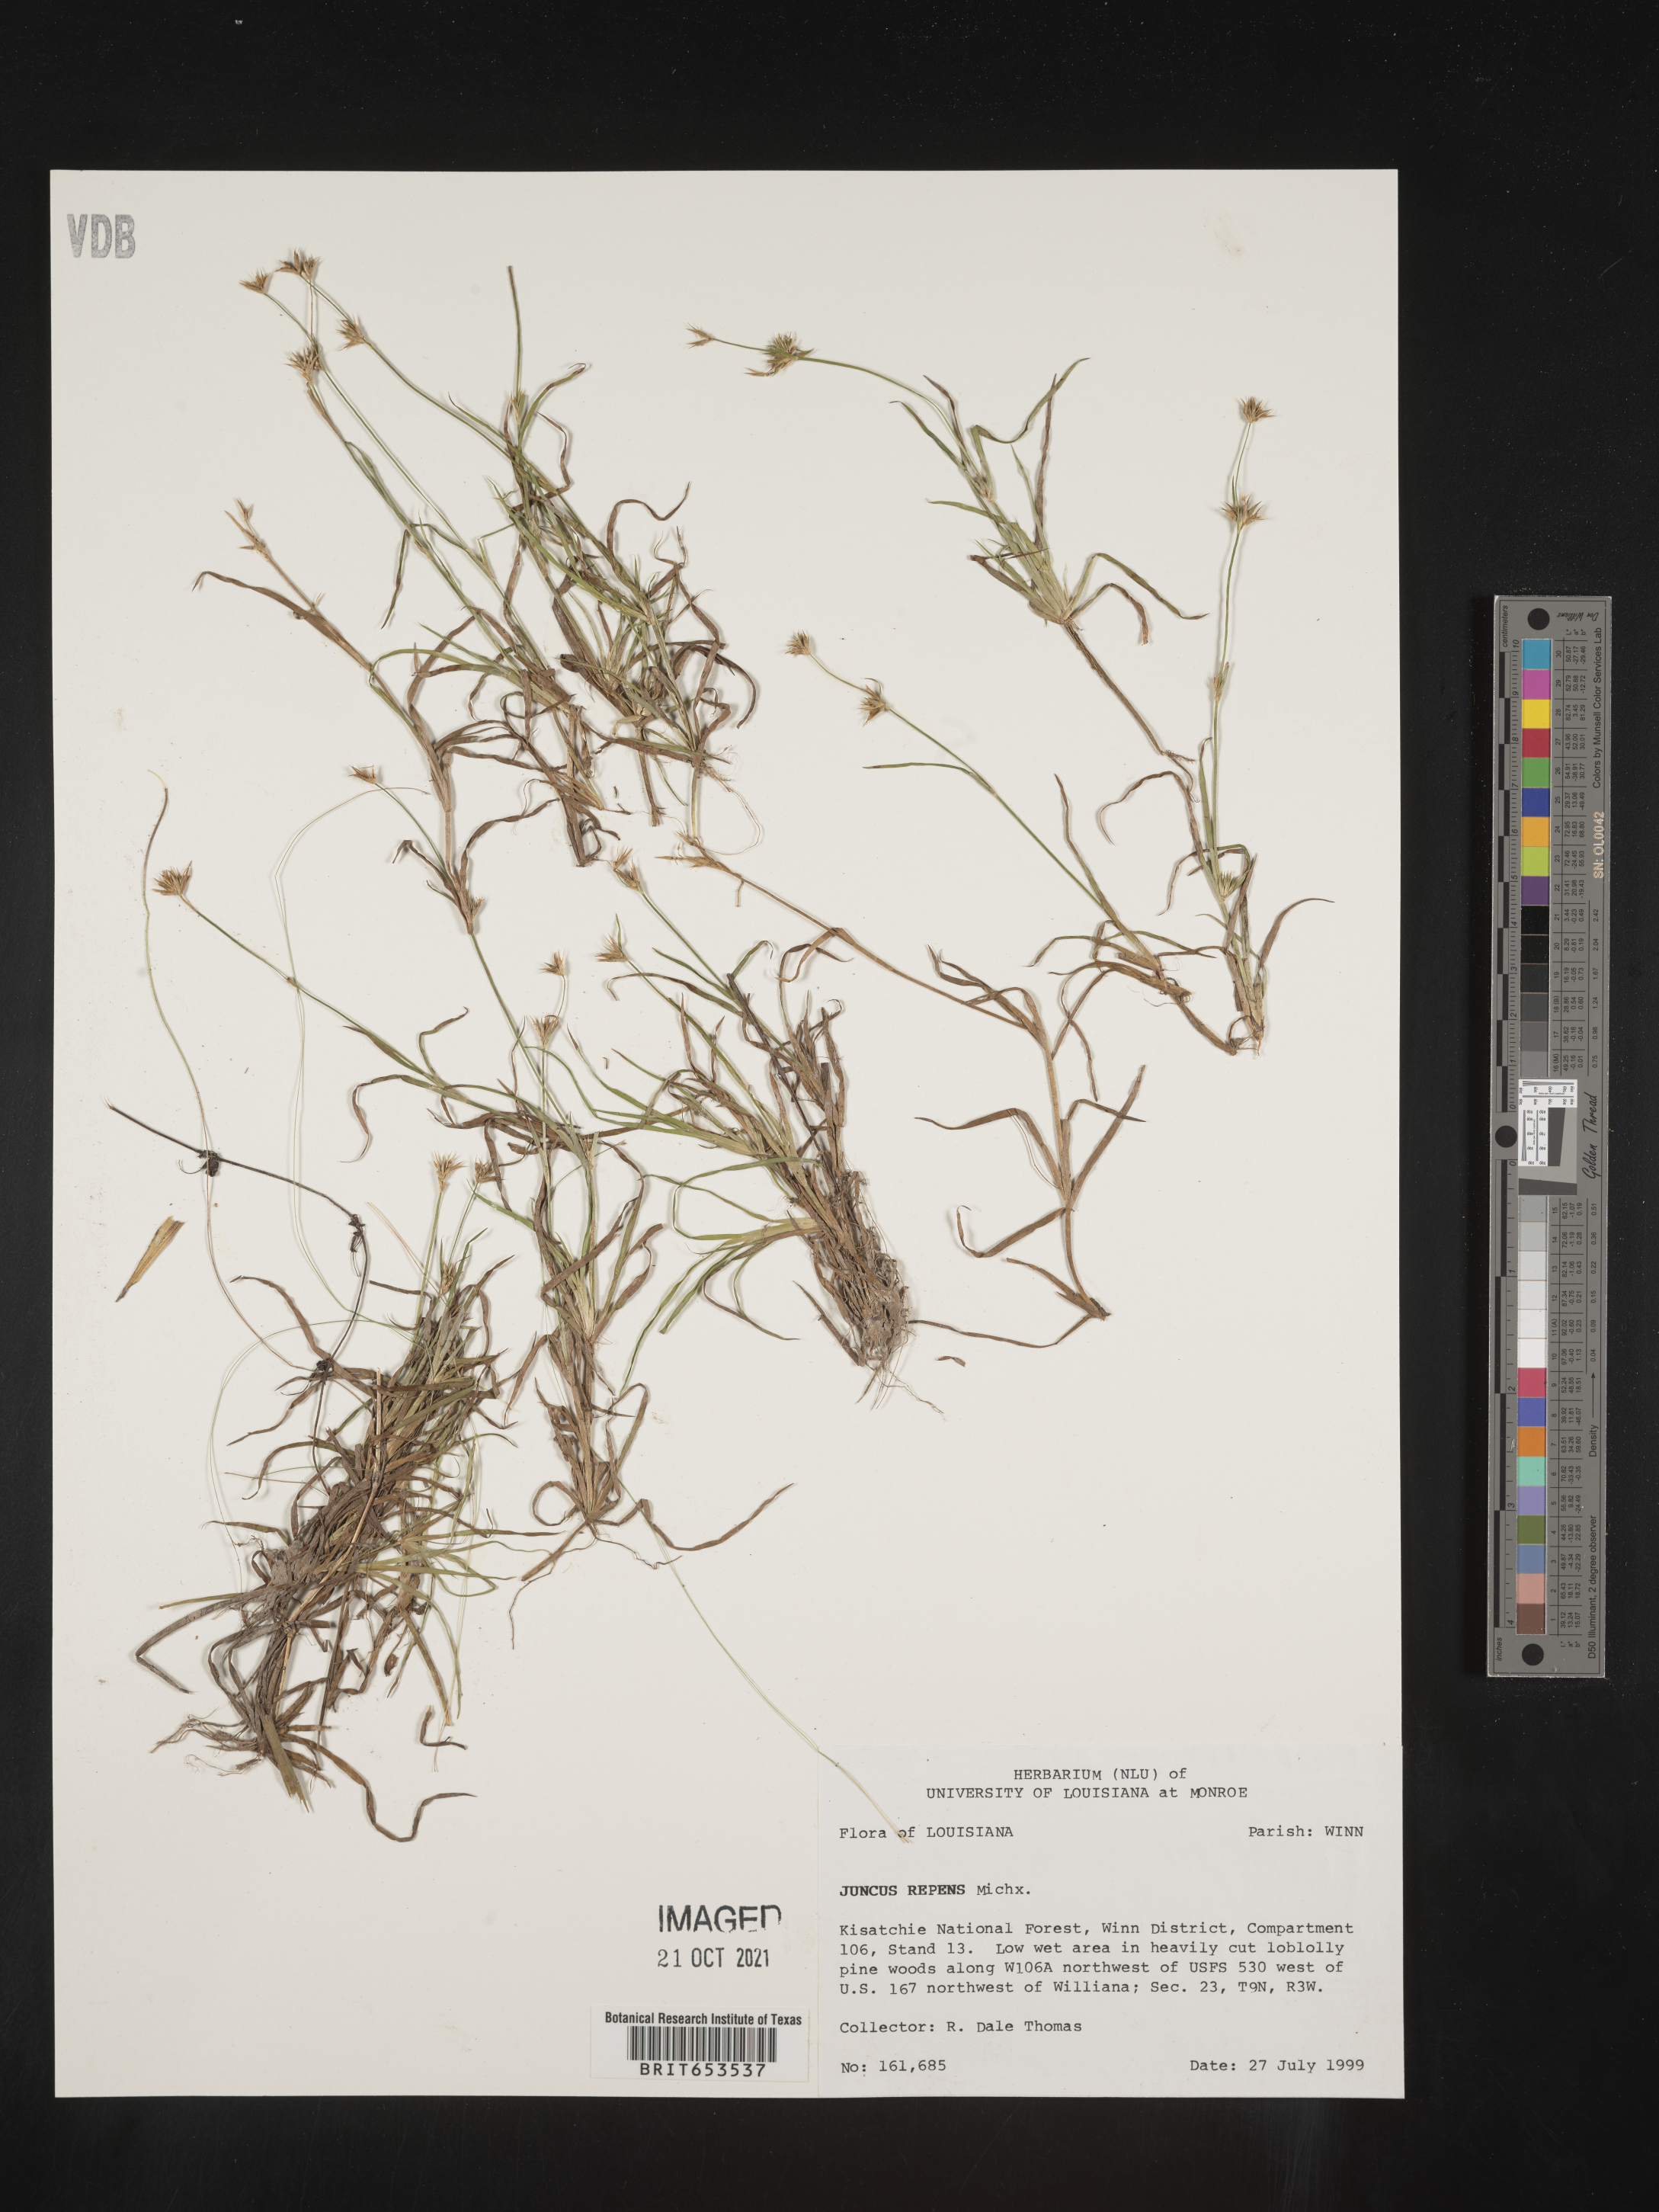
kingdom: Plantae
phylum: Tracheophyta
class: Liliopsida
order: Poales
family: Juncaceae
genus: Juncus
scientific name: Juncus repens
